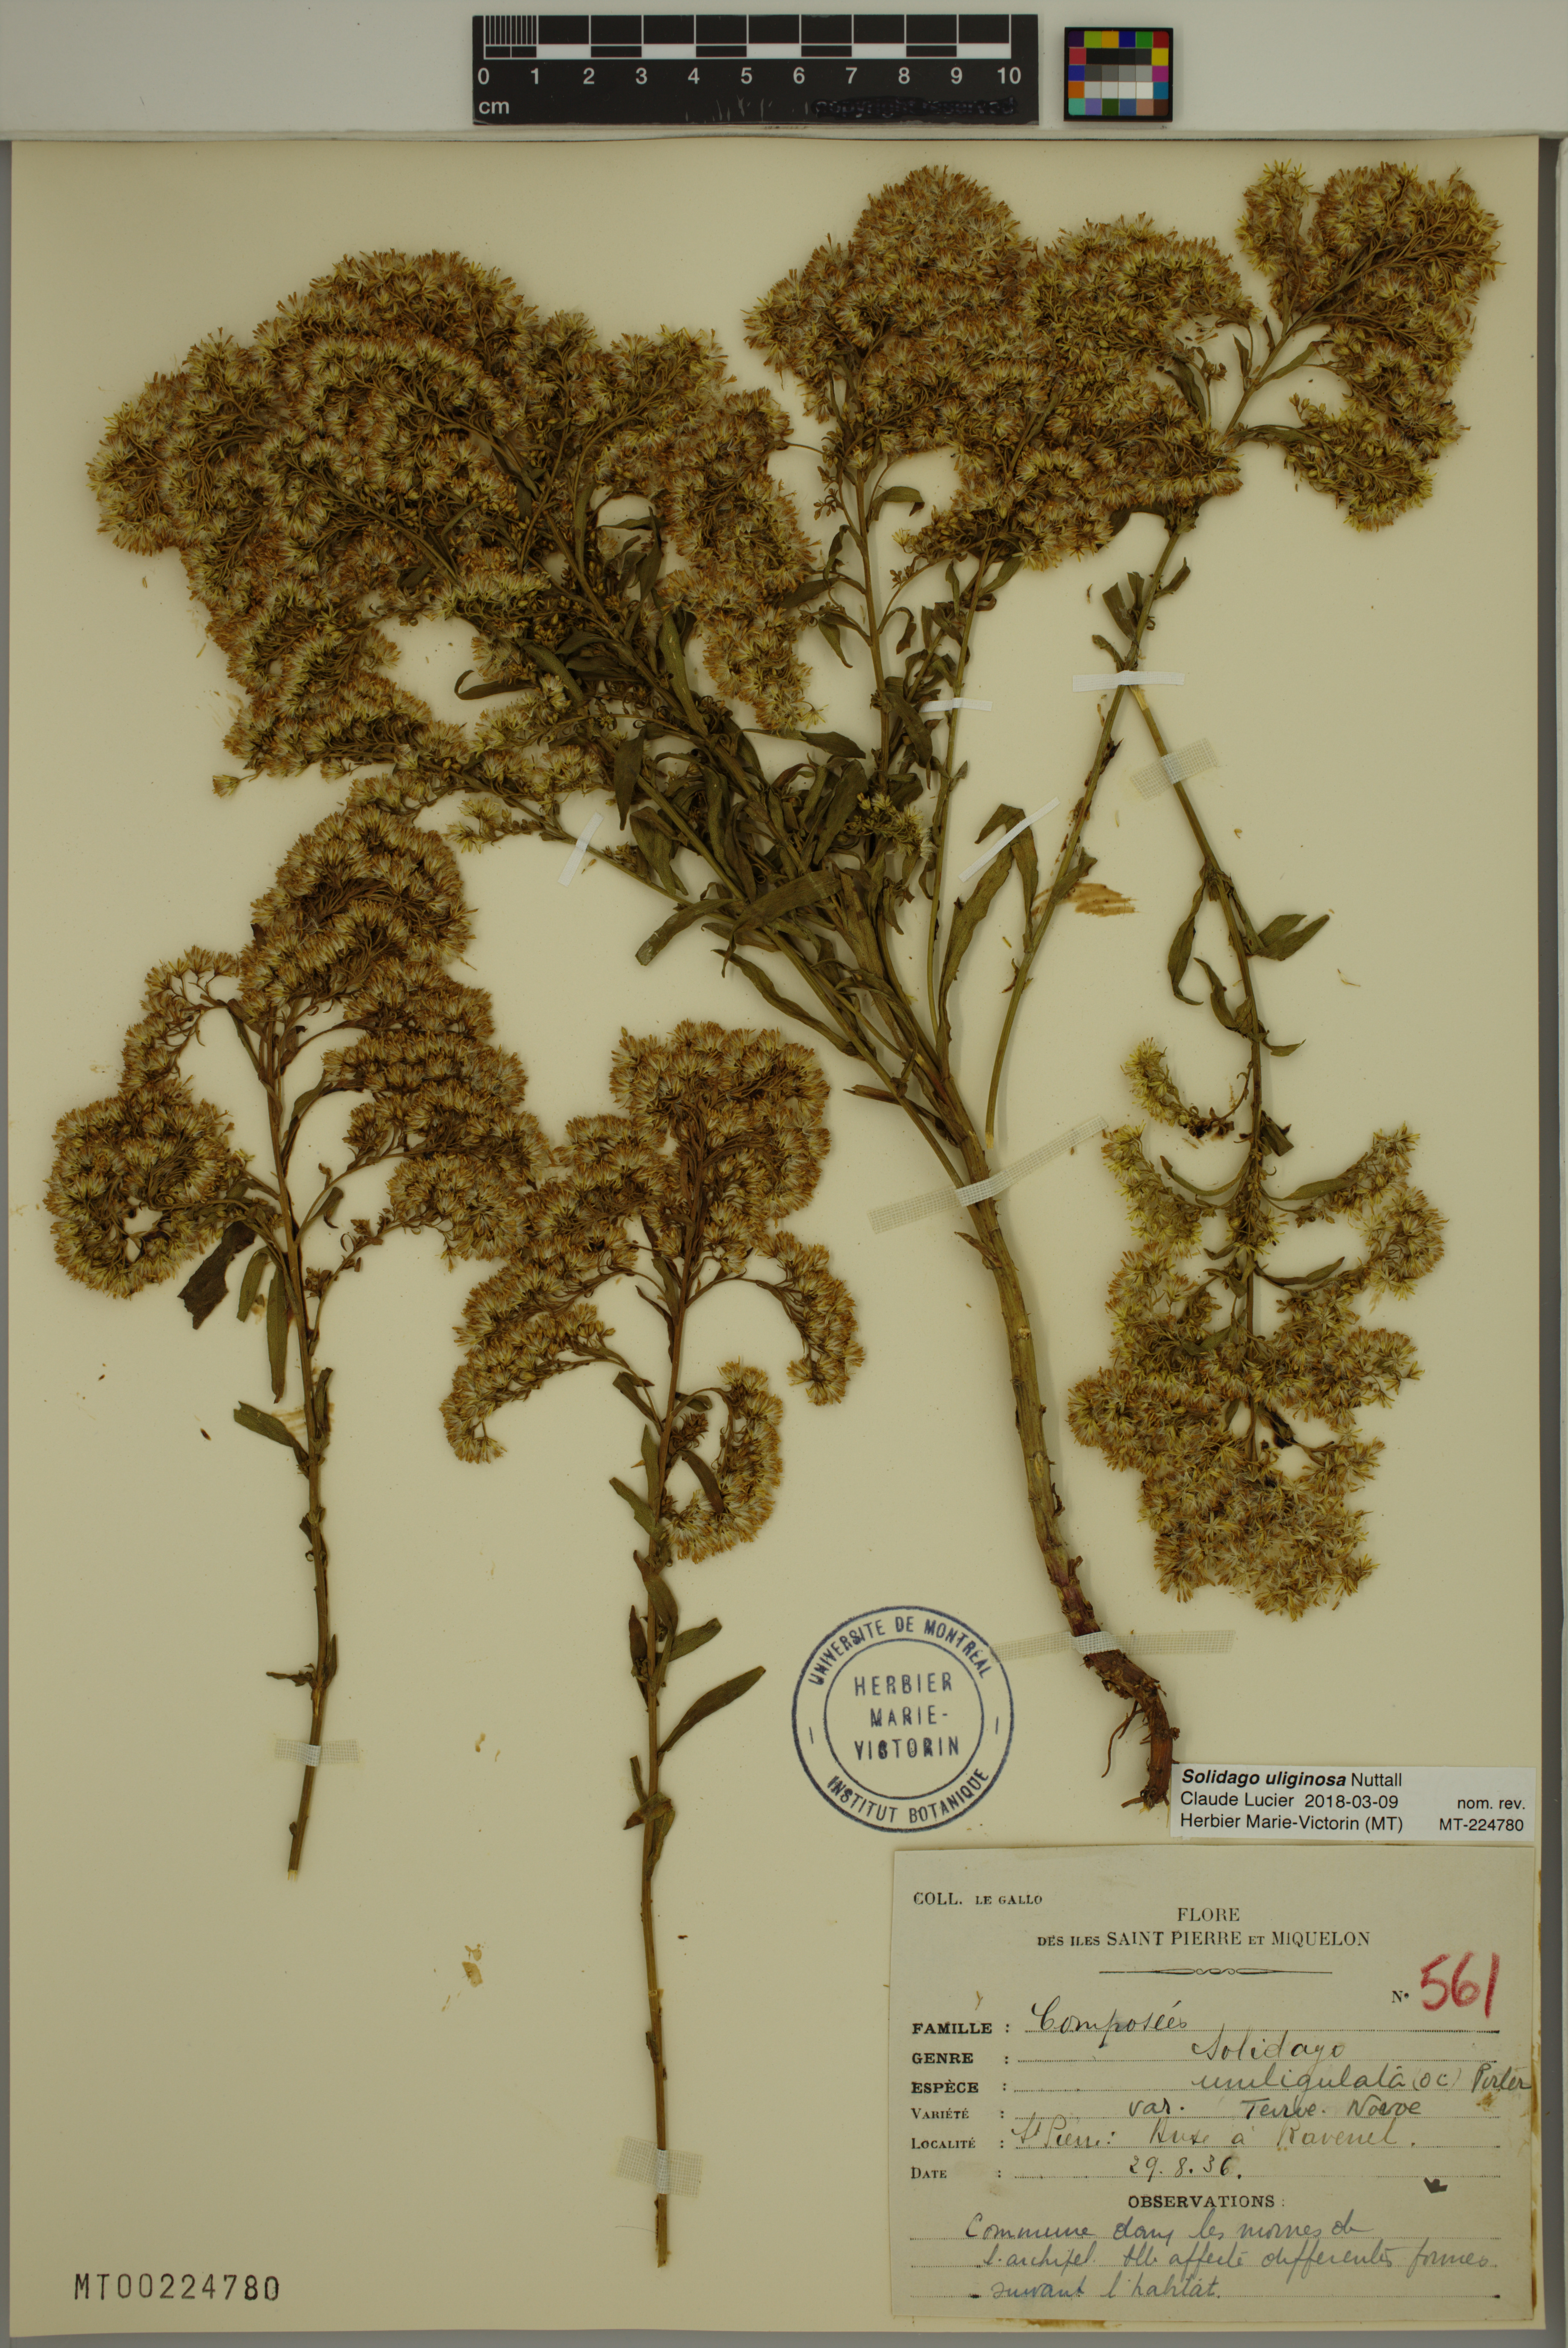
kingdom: Plantae
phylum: Tracheophyta
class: Magnoliopsida
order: Asterales
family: Asteraceae
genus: Solidago
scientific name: Solidago uliginosa
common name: Bog goldenrod
